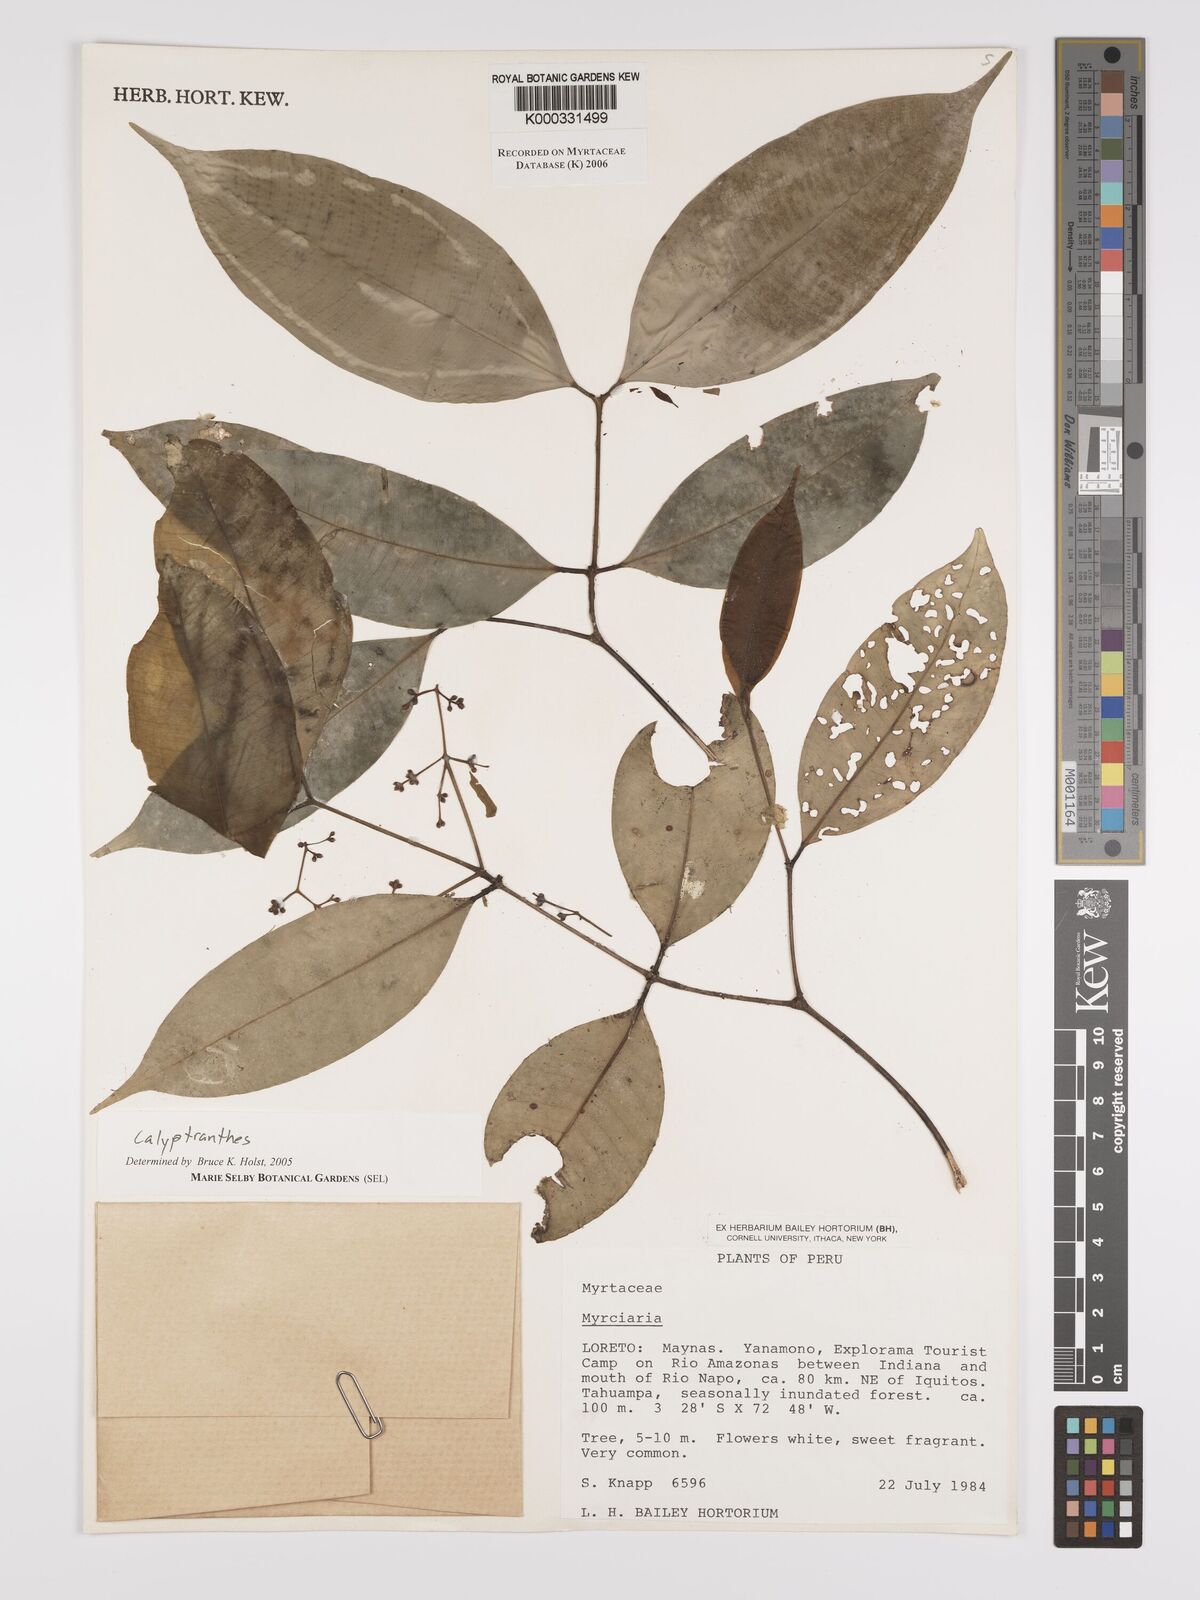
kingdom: Plantae
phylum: Tracheophyta
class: Magnoliopsida
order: Myrtales
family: Myrtaceae
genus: Calyptranthes
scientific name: Calyptranthes
